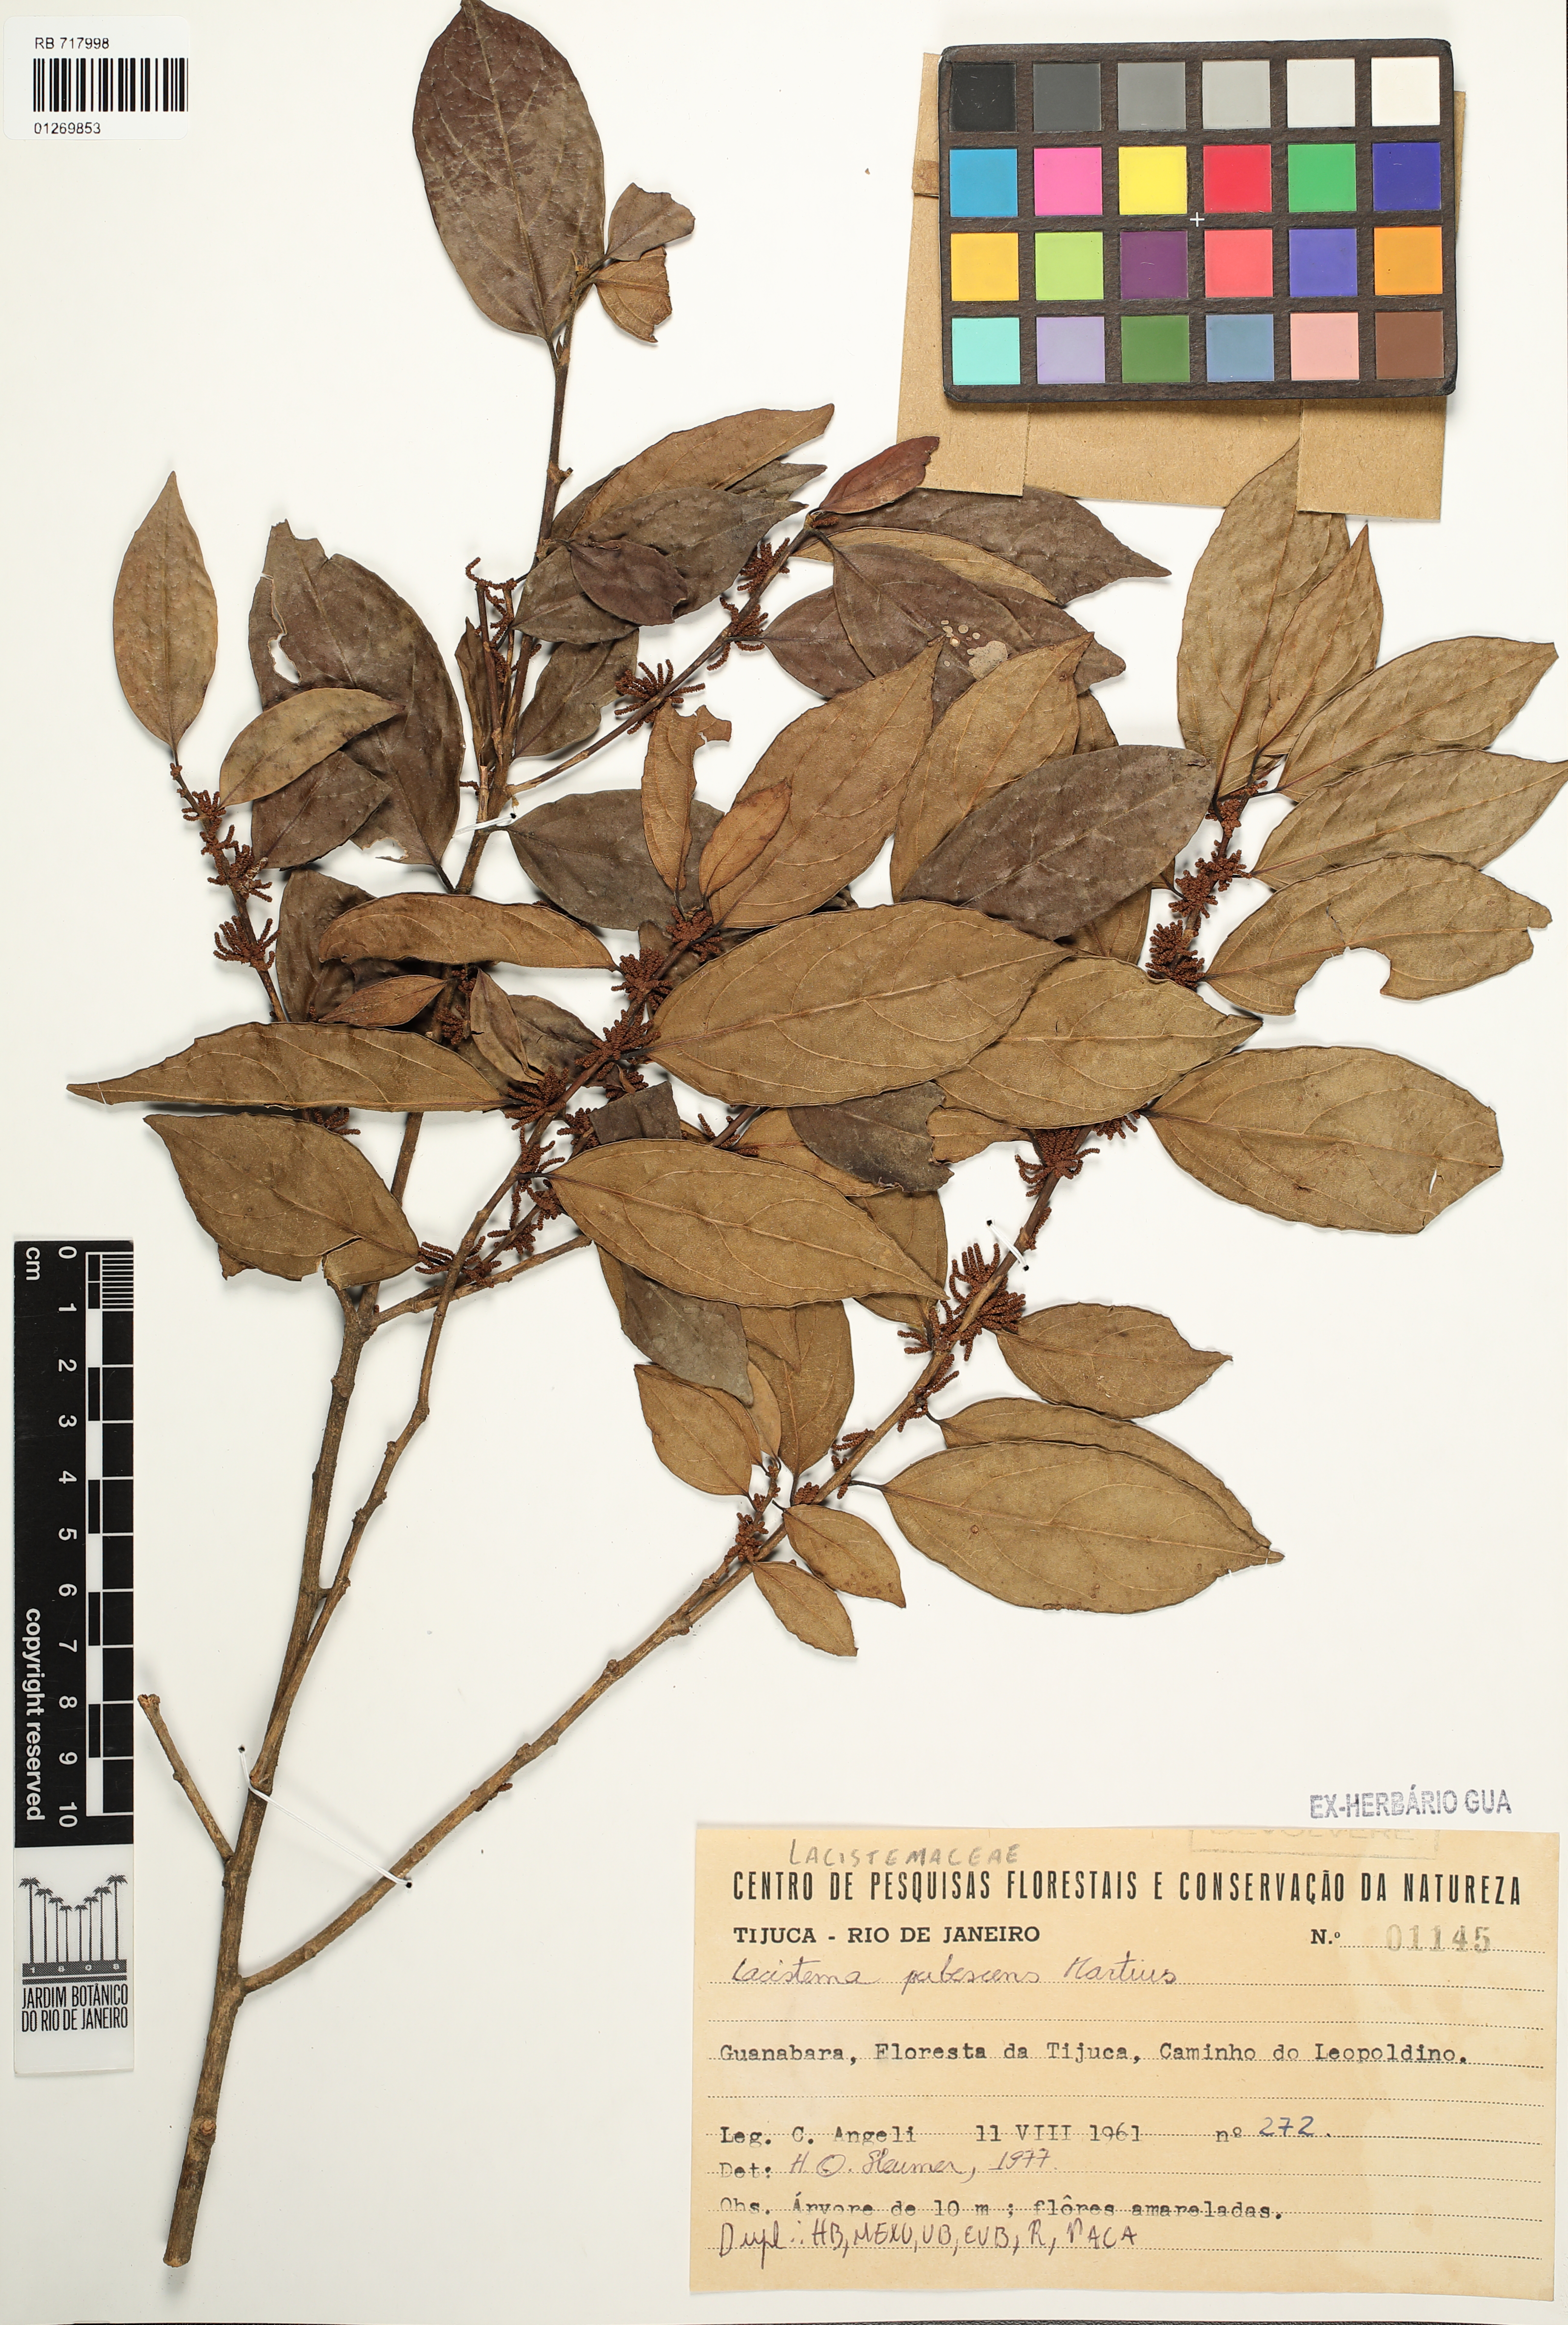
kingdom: Plantae
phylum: Tracheophyta
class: Magnoliopsida
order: Malpighiales
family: Lacistemataceae
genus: Lacistema
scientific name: Lacistema pubescens
